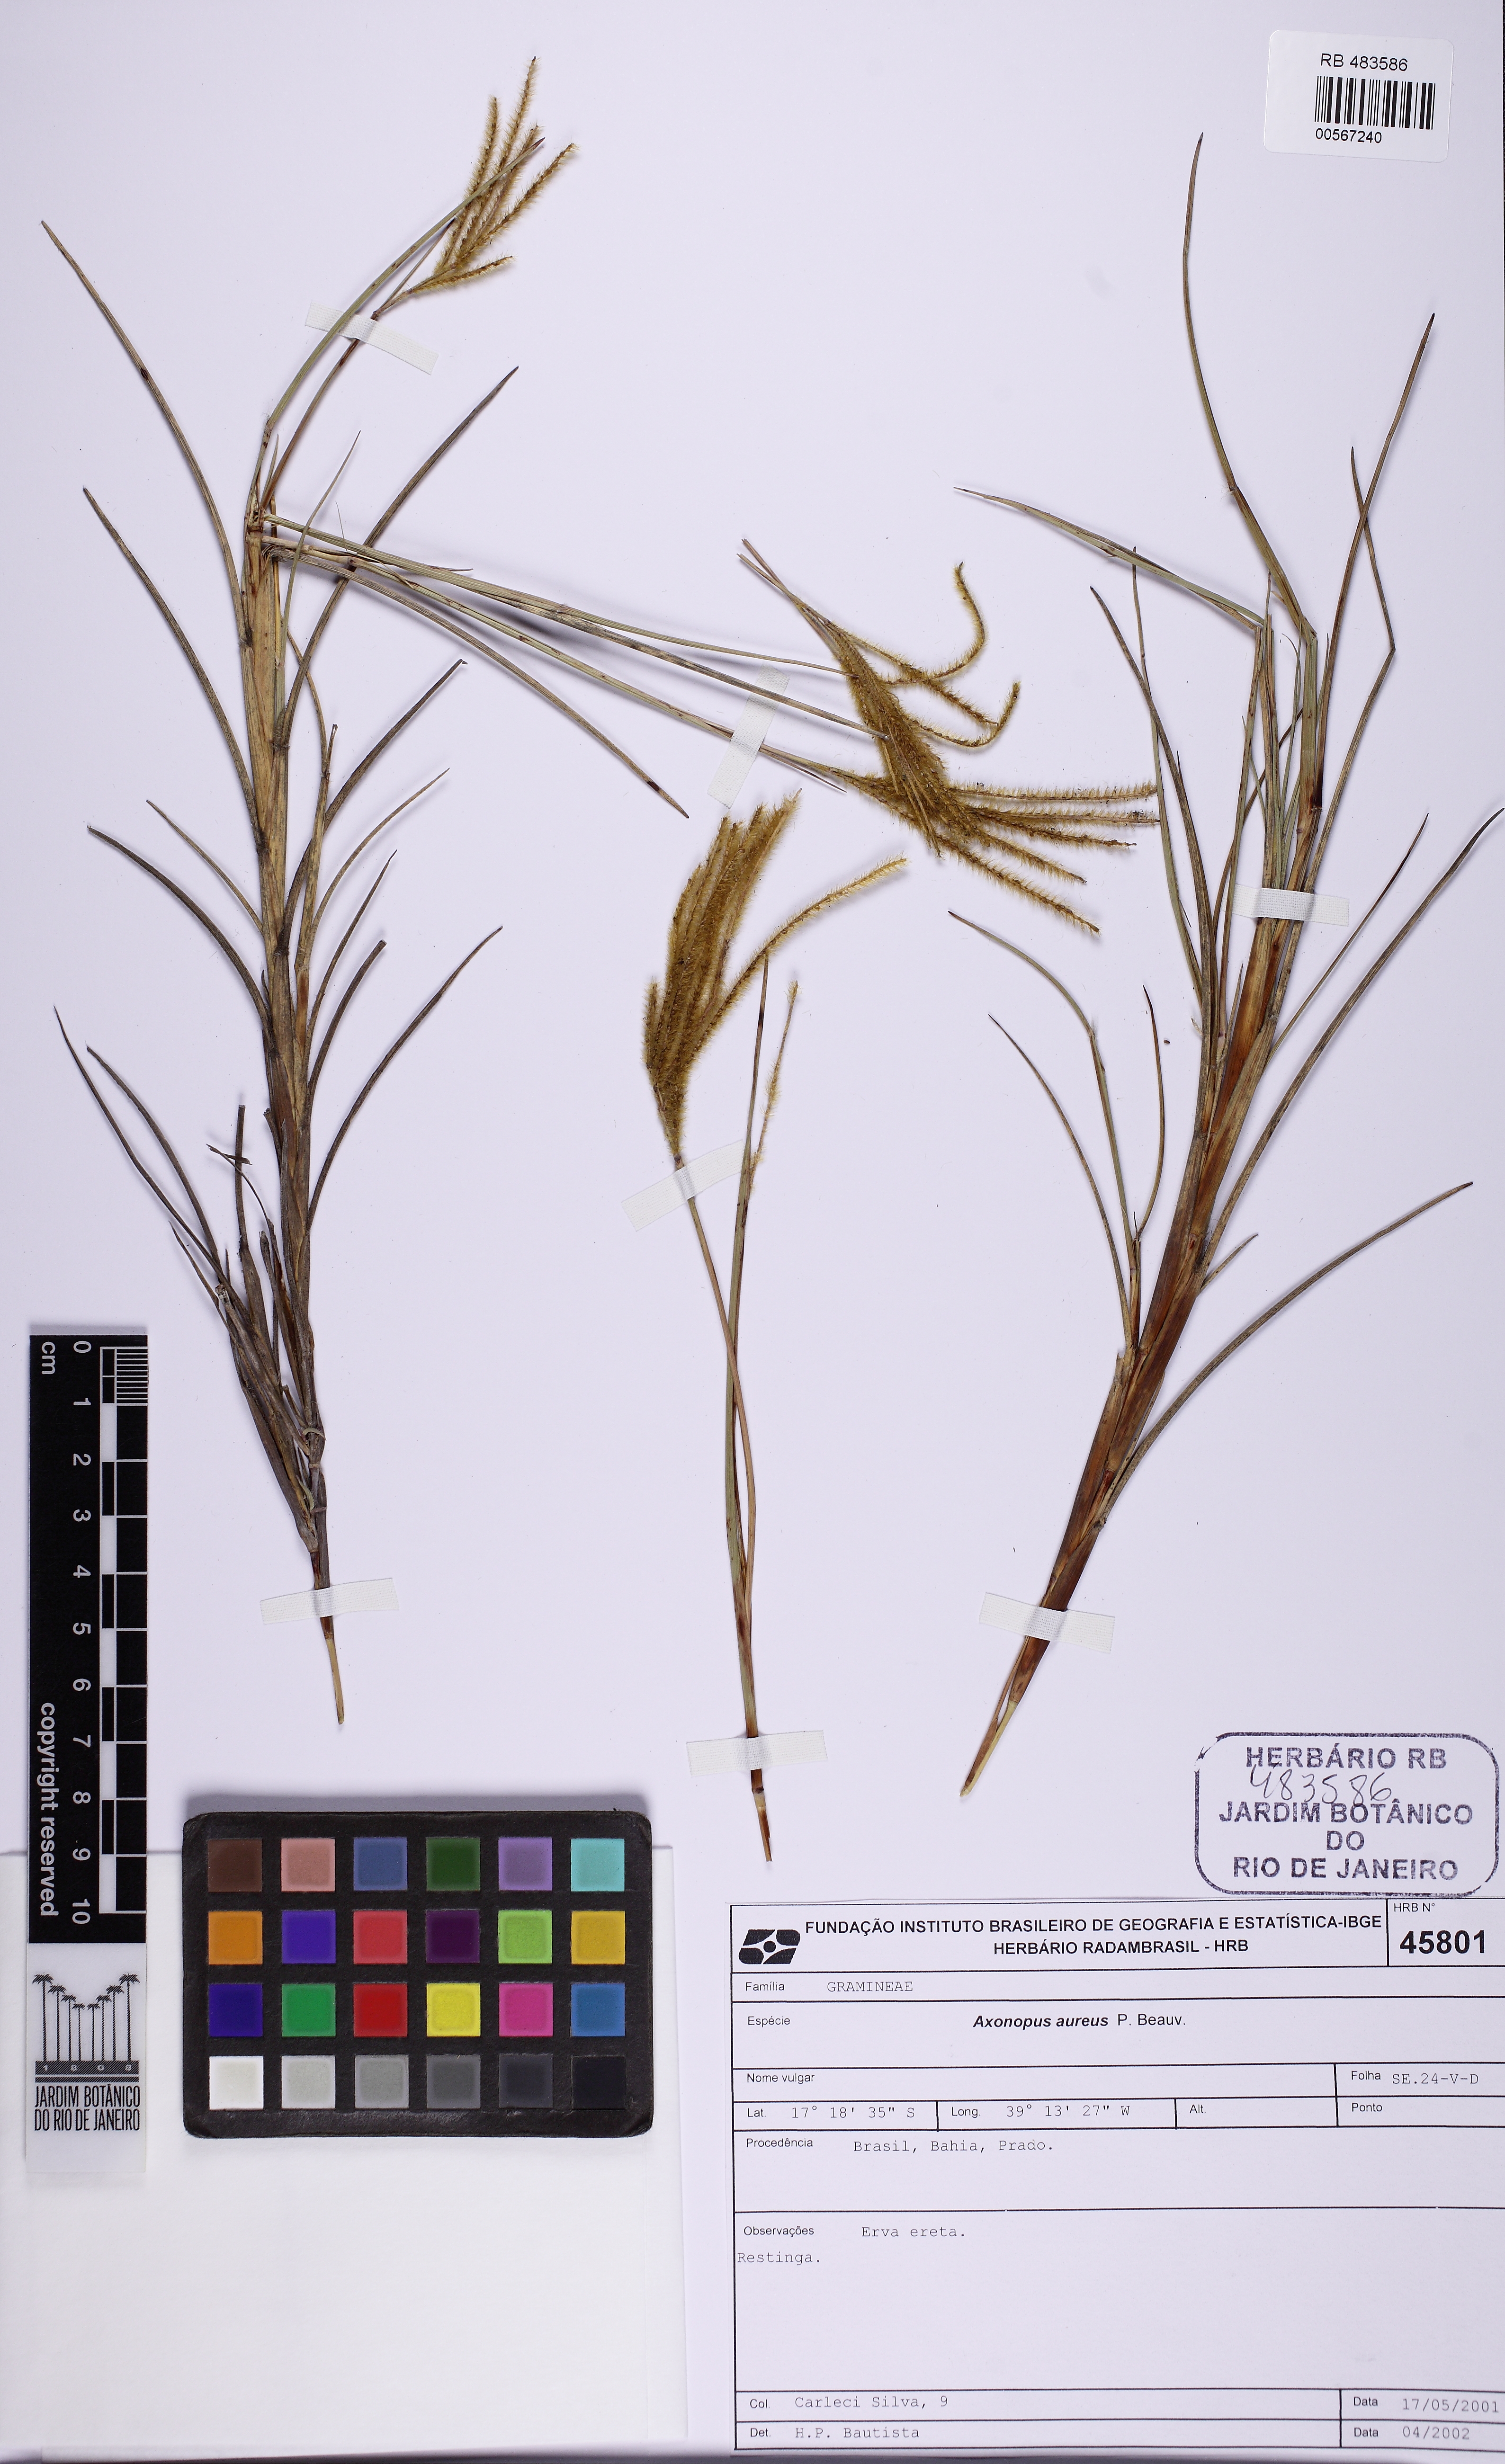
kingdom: Plantae
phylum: Tracheophyta
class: Liliopsida
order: Poales
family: Poaceae
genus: Axonopus
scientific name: Axonopus aureus
